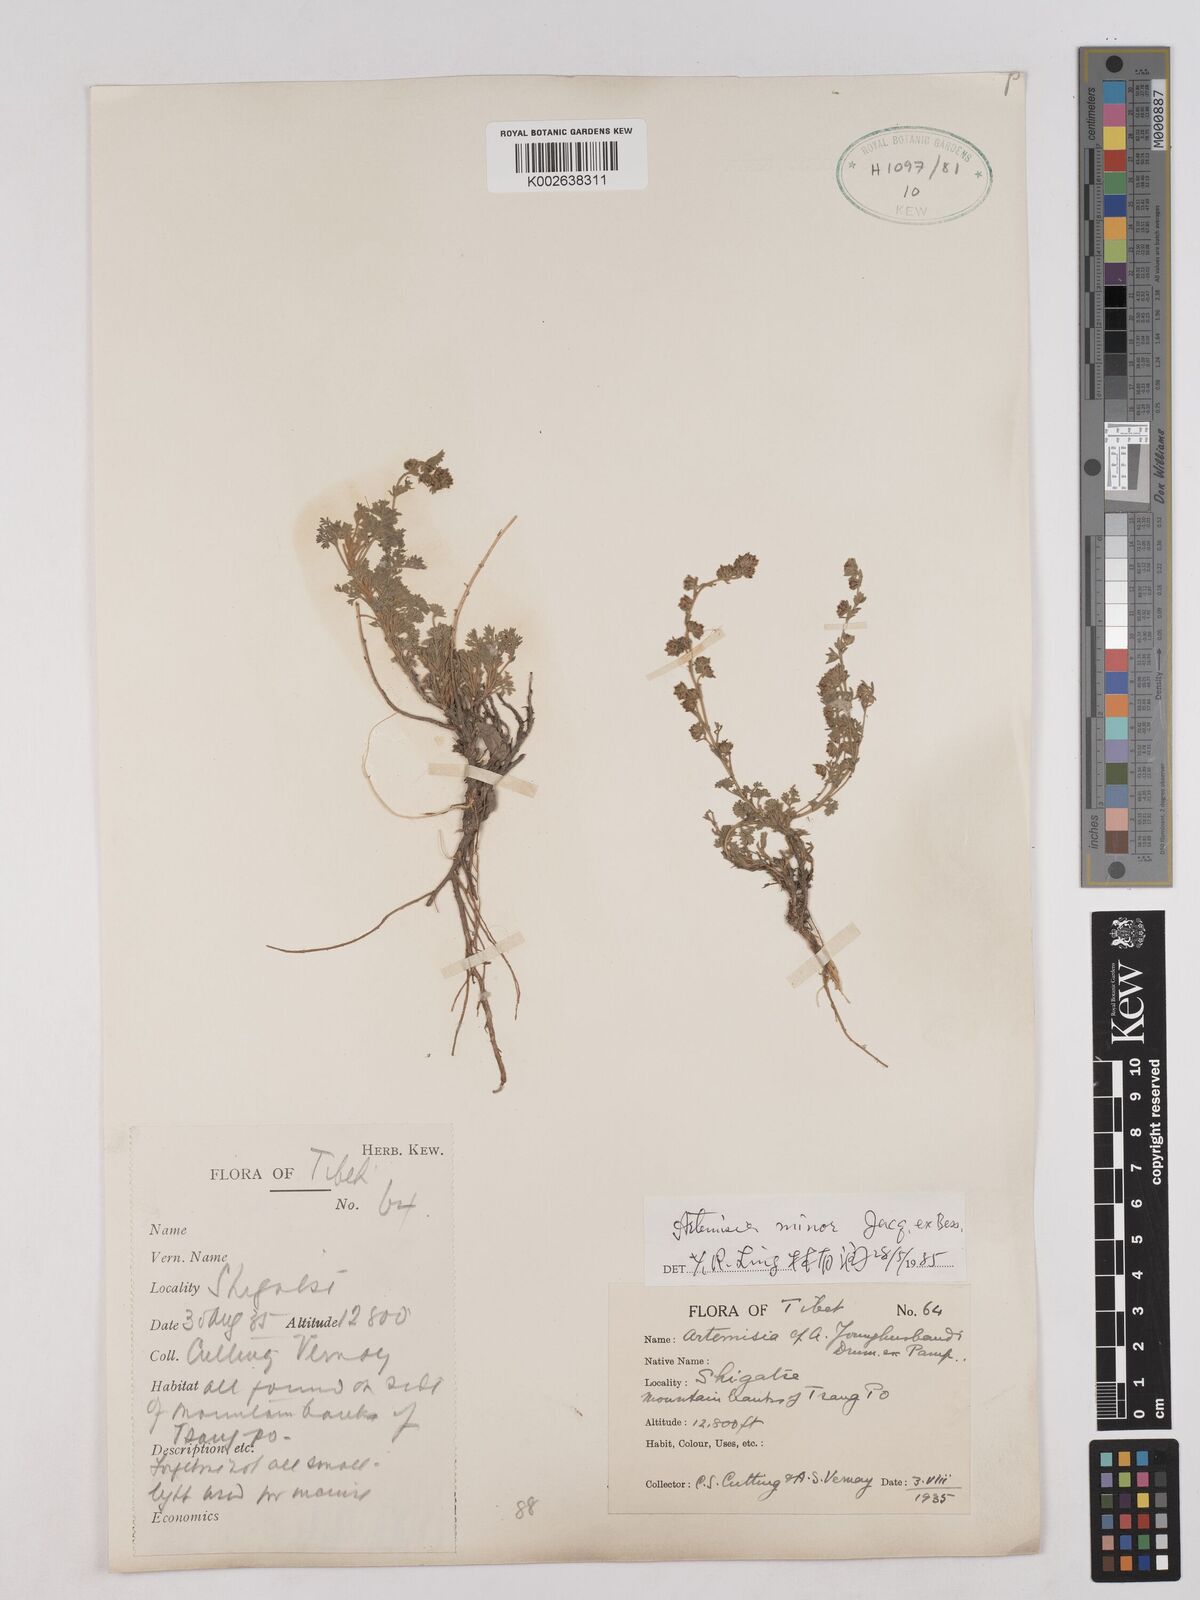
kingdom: Plantae
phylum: Tracheophyta
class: Magnoliopsida
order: Asterales
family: Asteraceae
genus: Artemisia
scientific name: Artemisia minor
